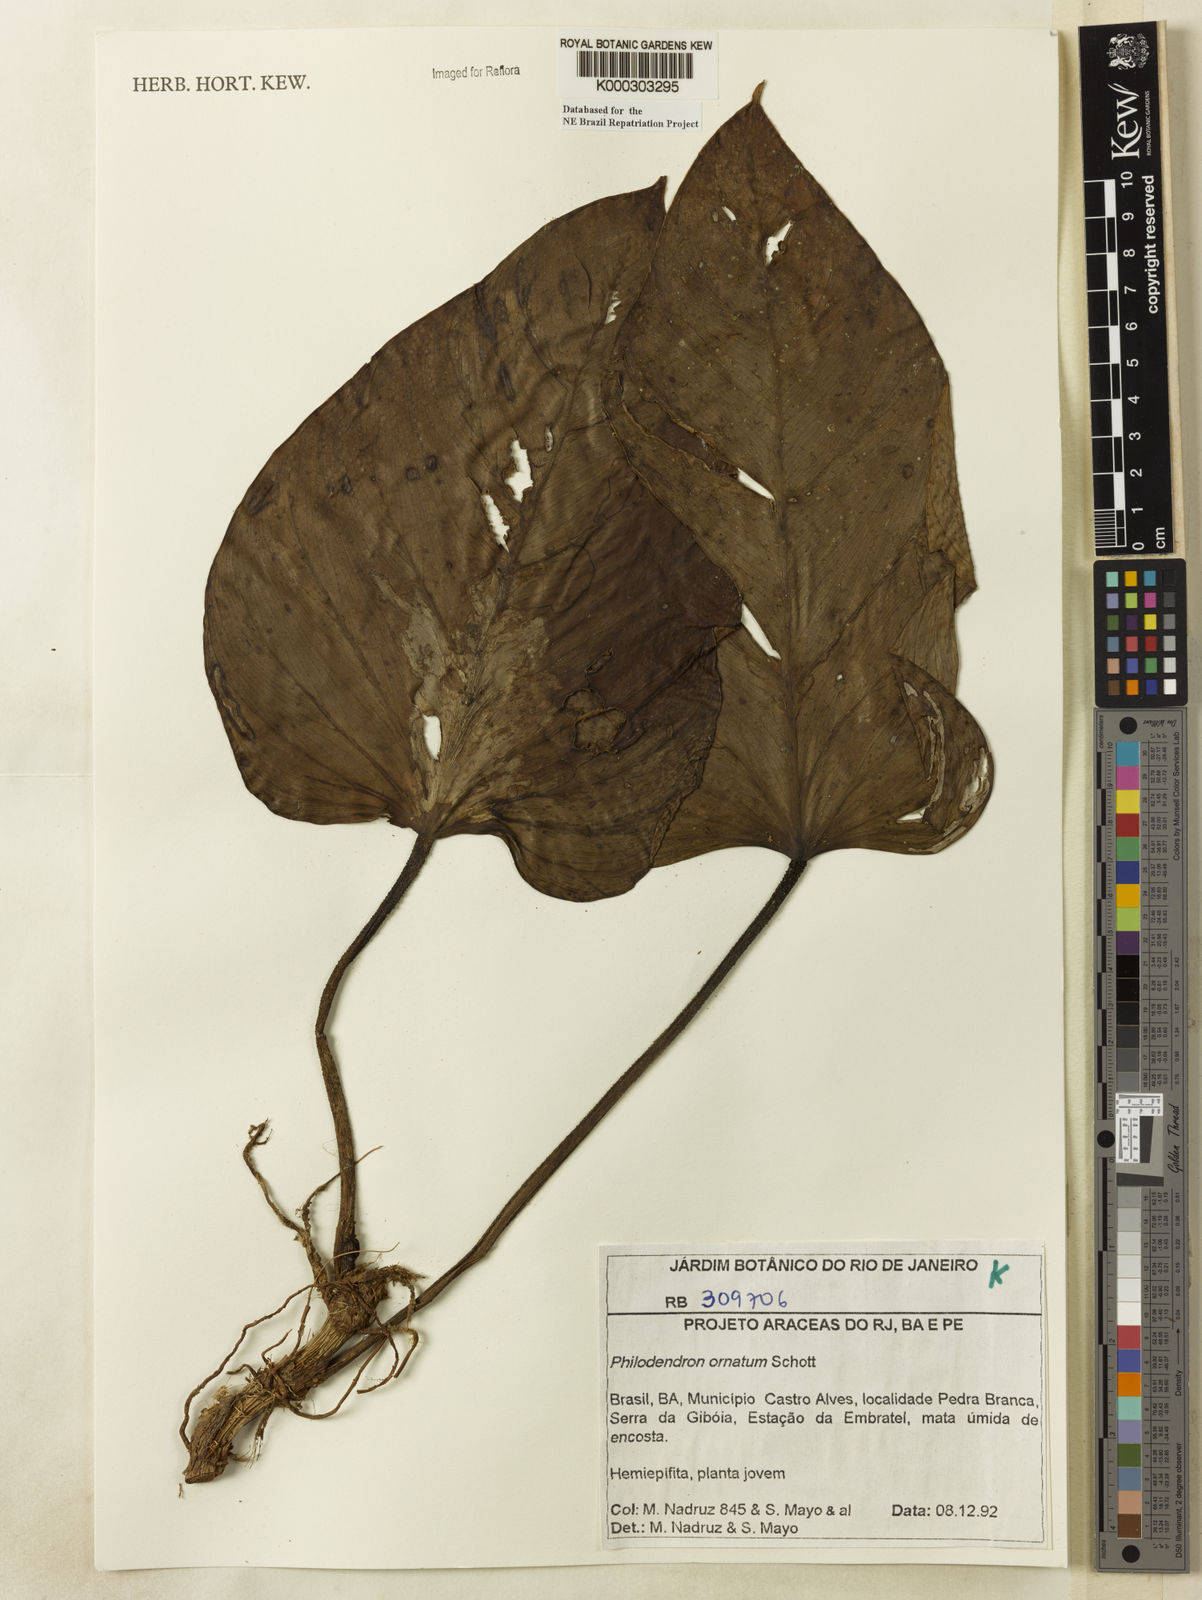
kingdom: Plantae
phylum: Tracheophyta
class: Liliopsida
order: Alismatales
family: Araceae
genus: Philodendron
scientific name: Philodendron ornatum
